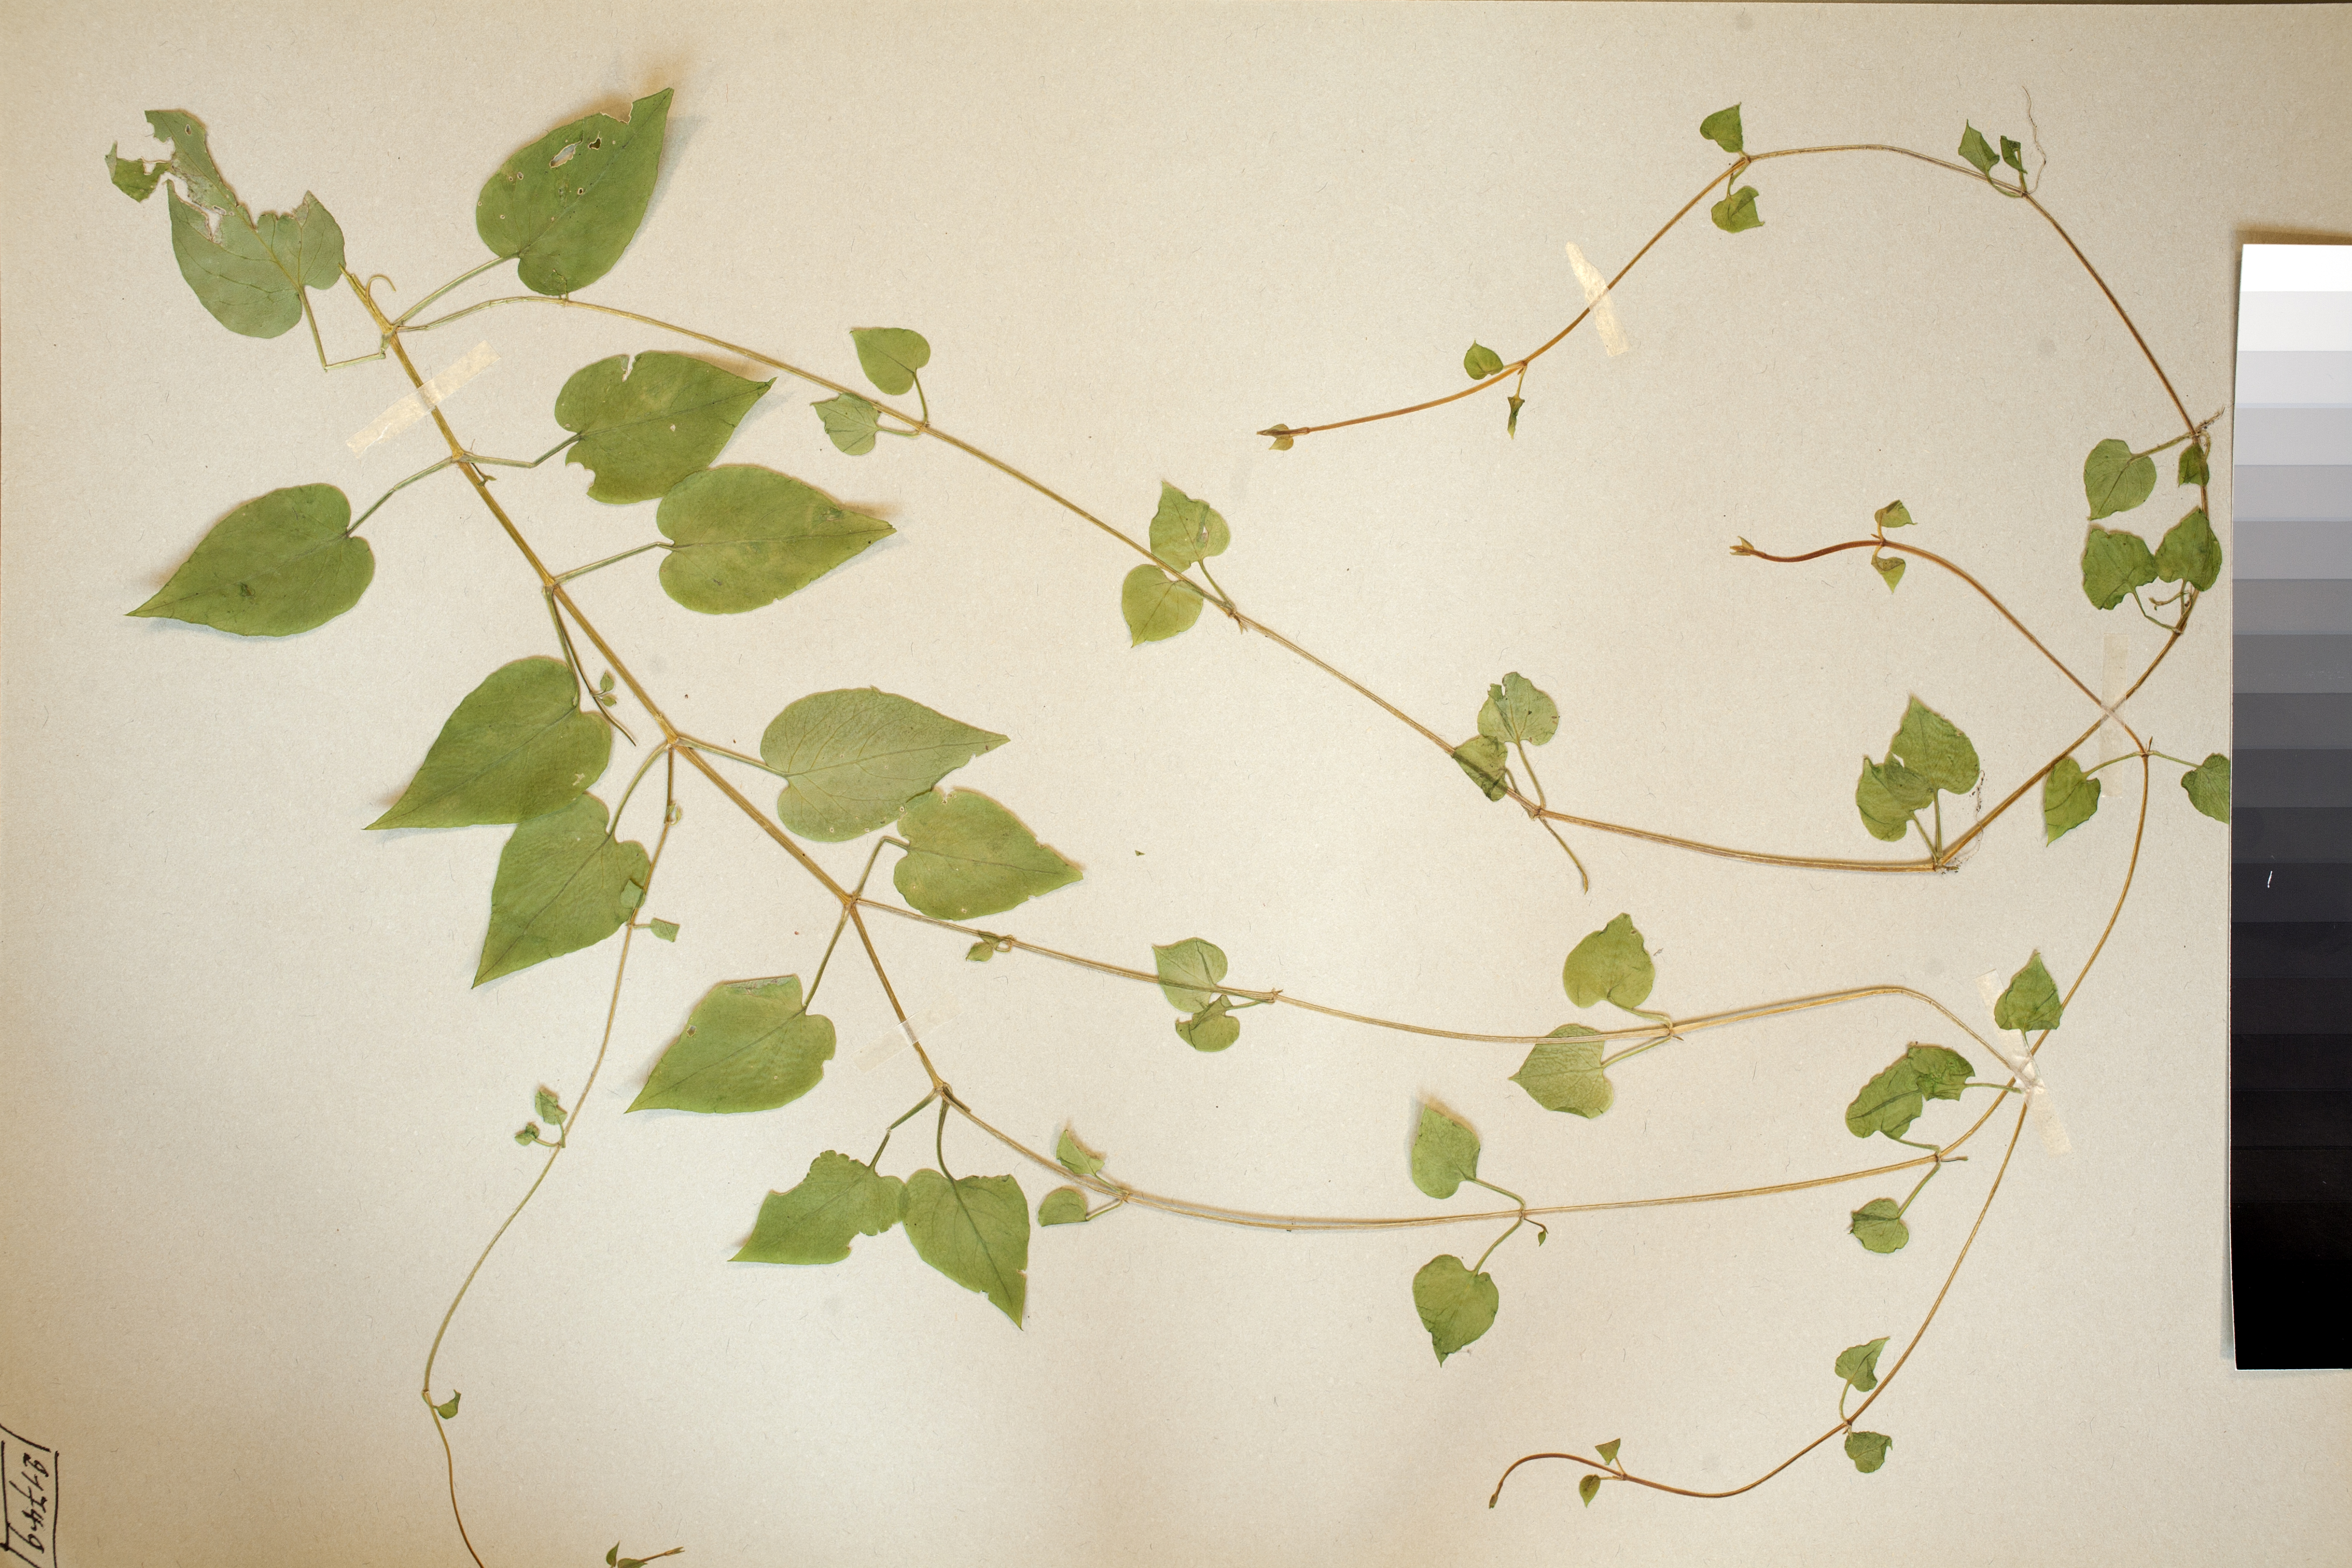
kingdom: Plantae
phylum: Tracheophyta
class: Magnoliopsida
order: Caryophyllales
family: Caryophyllaceae
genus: Stellaria
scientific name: Stellaria glochidisperma
